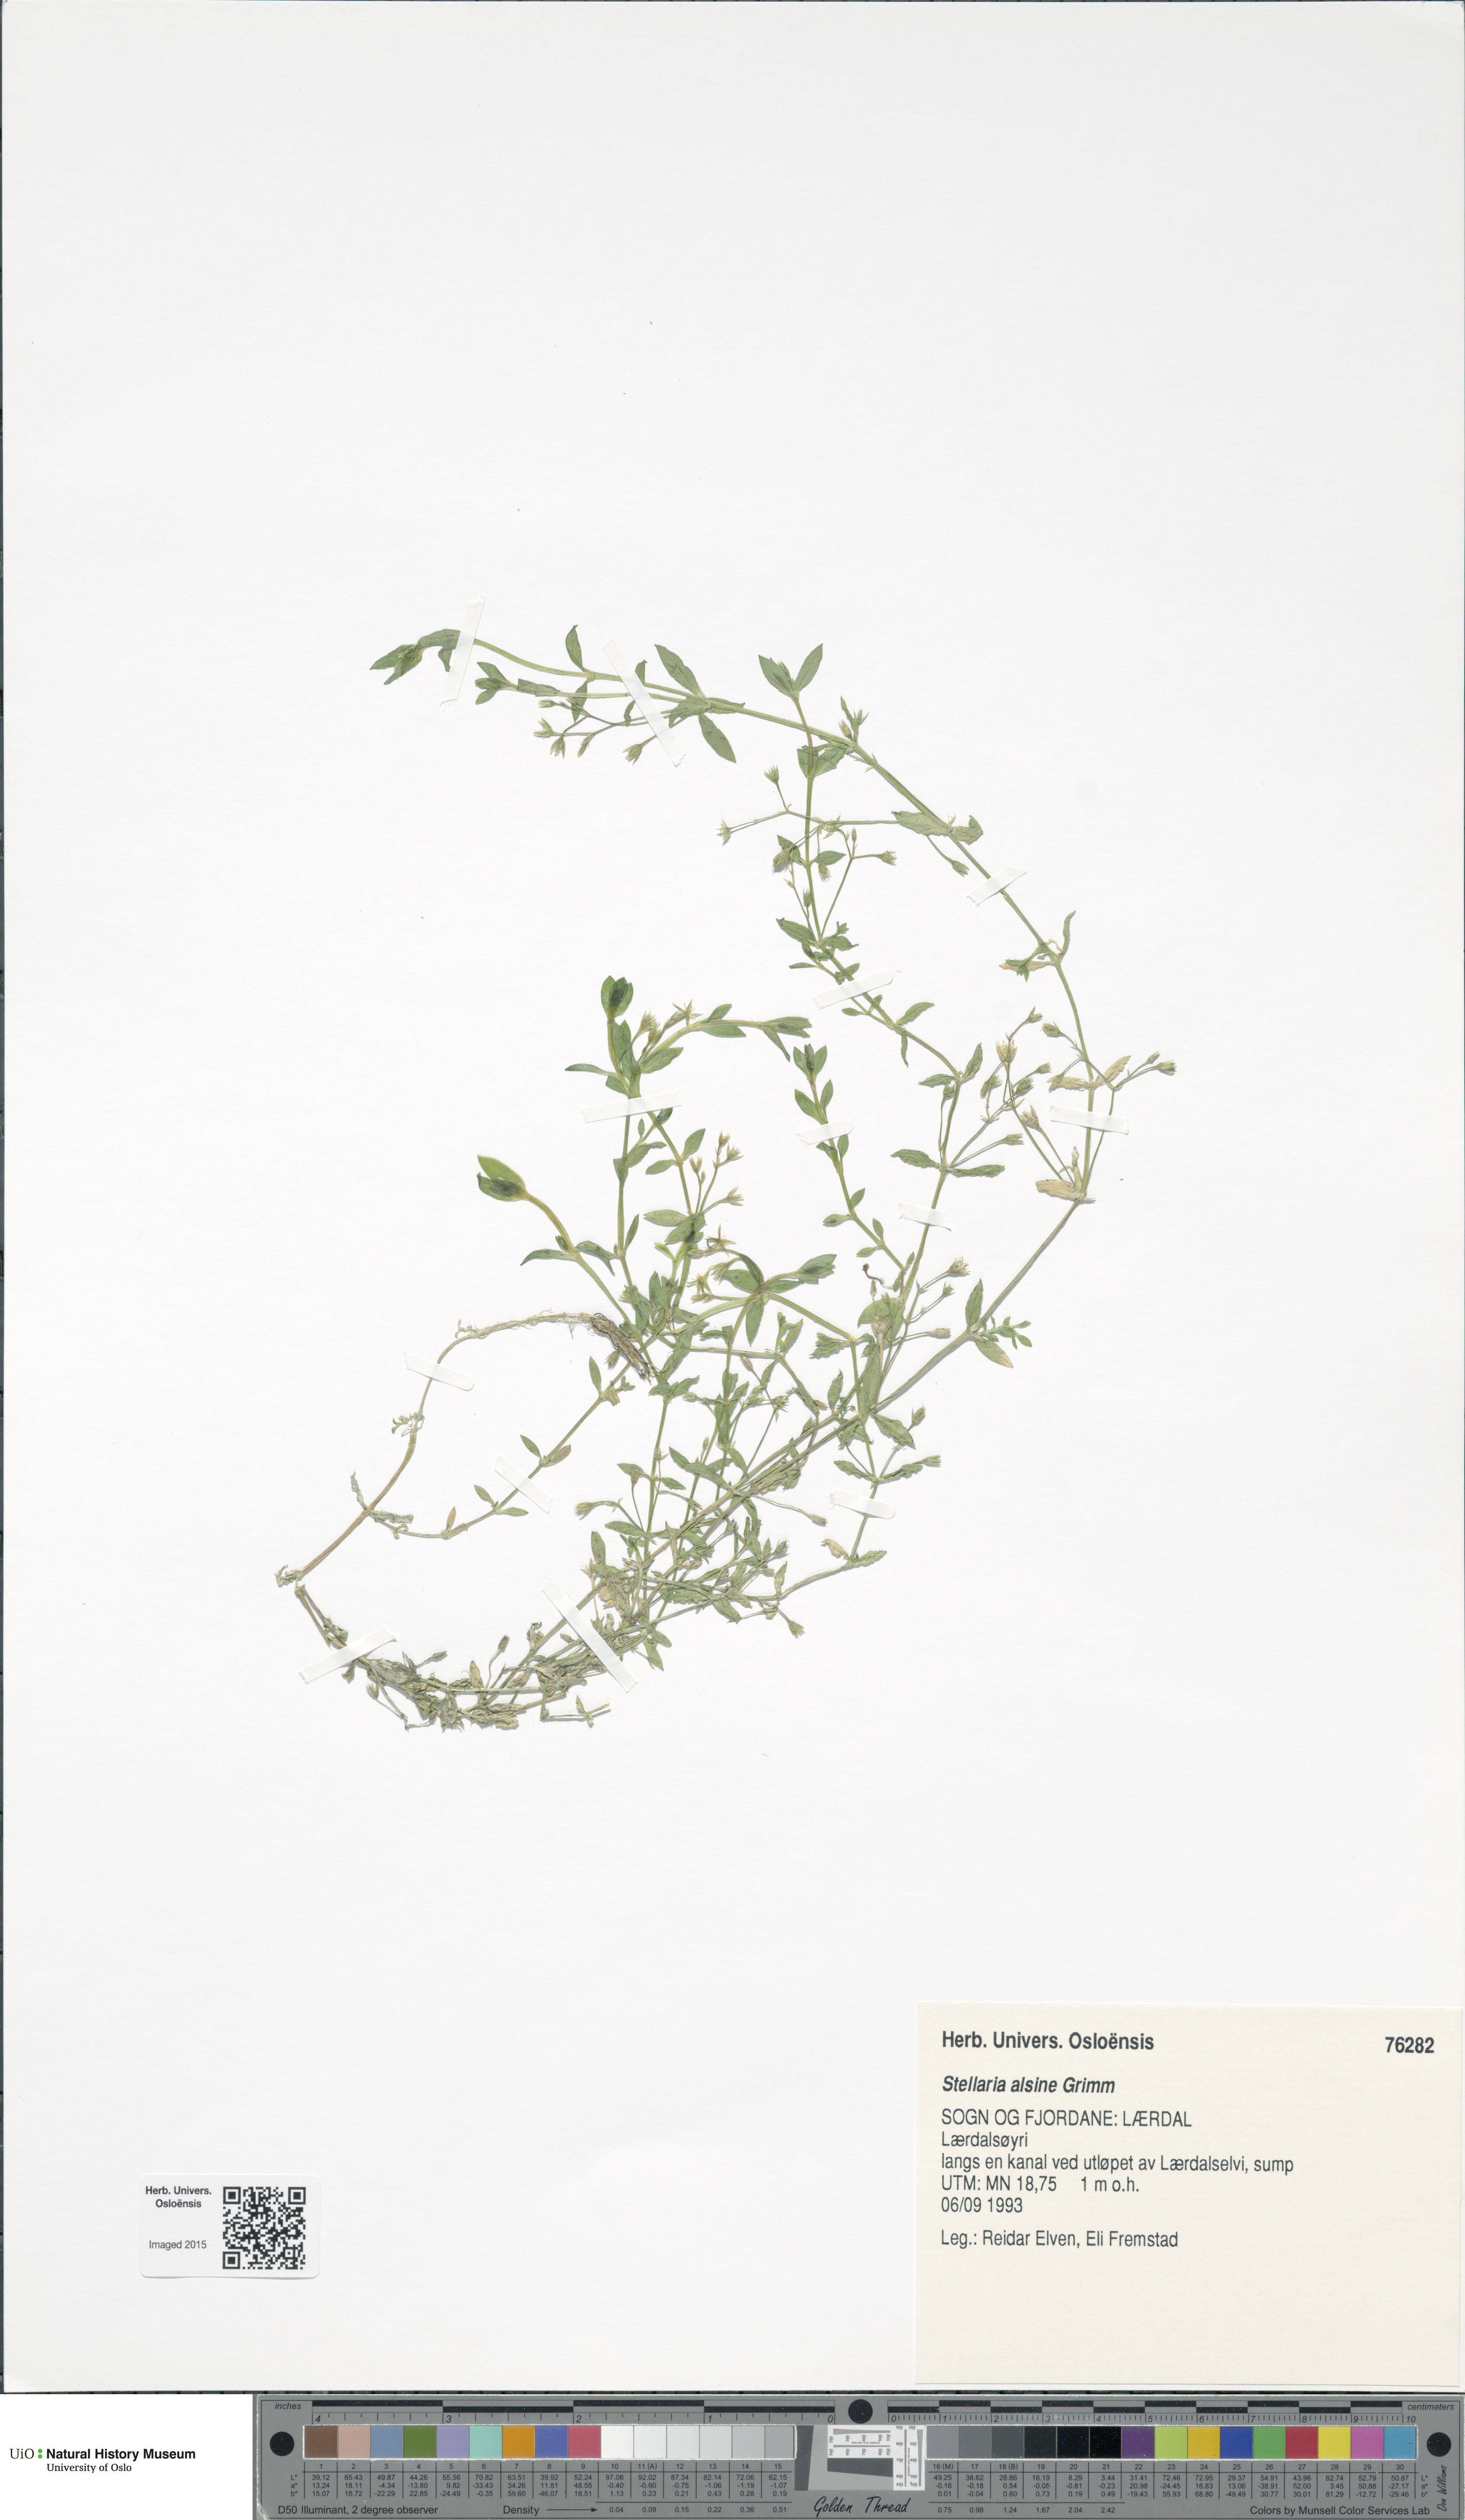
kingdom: Plantae
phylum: Tracheophyta
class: Magnoliopsida
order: Caryophyllales
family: Caryophyllaceae
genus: Stellaria
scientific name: Stellaria alsine
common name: Bog stitchwort
